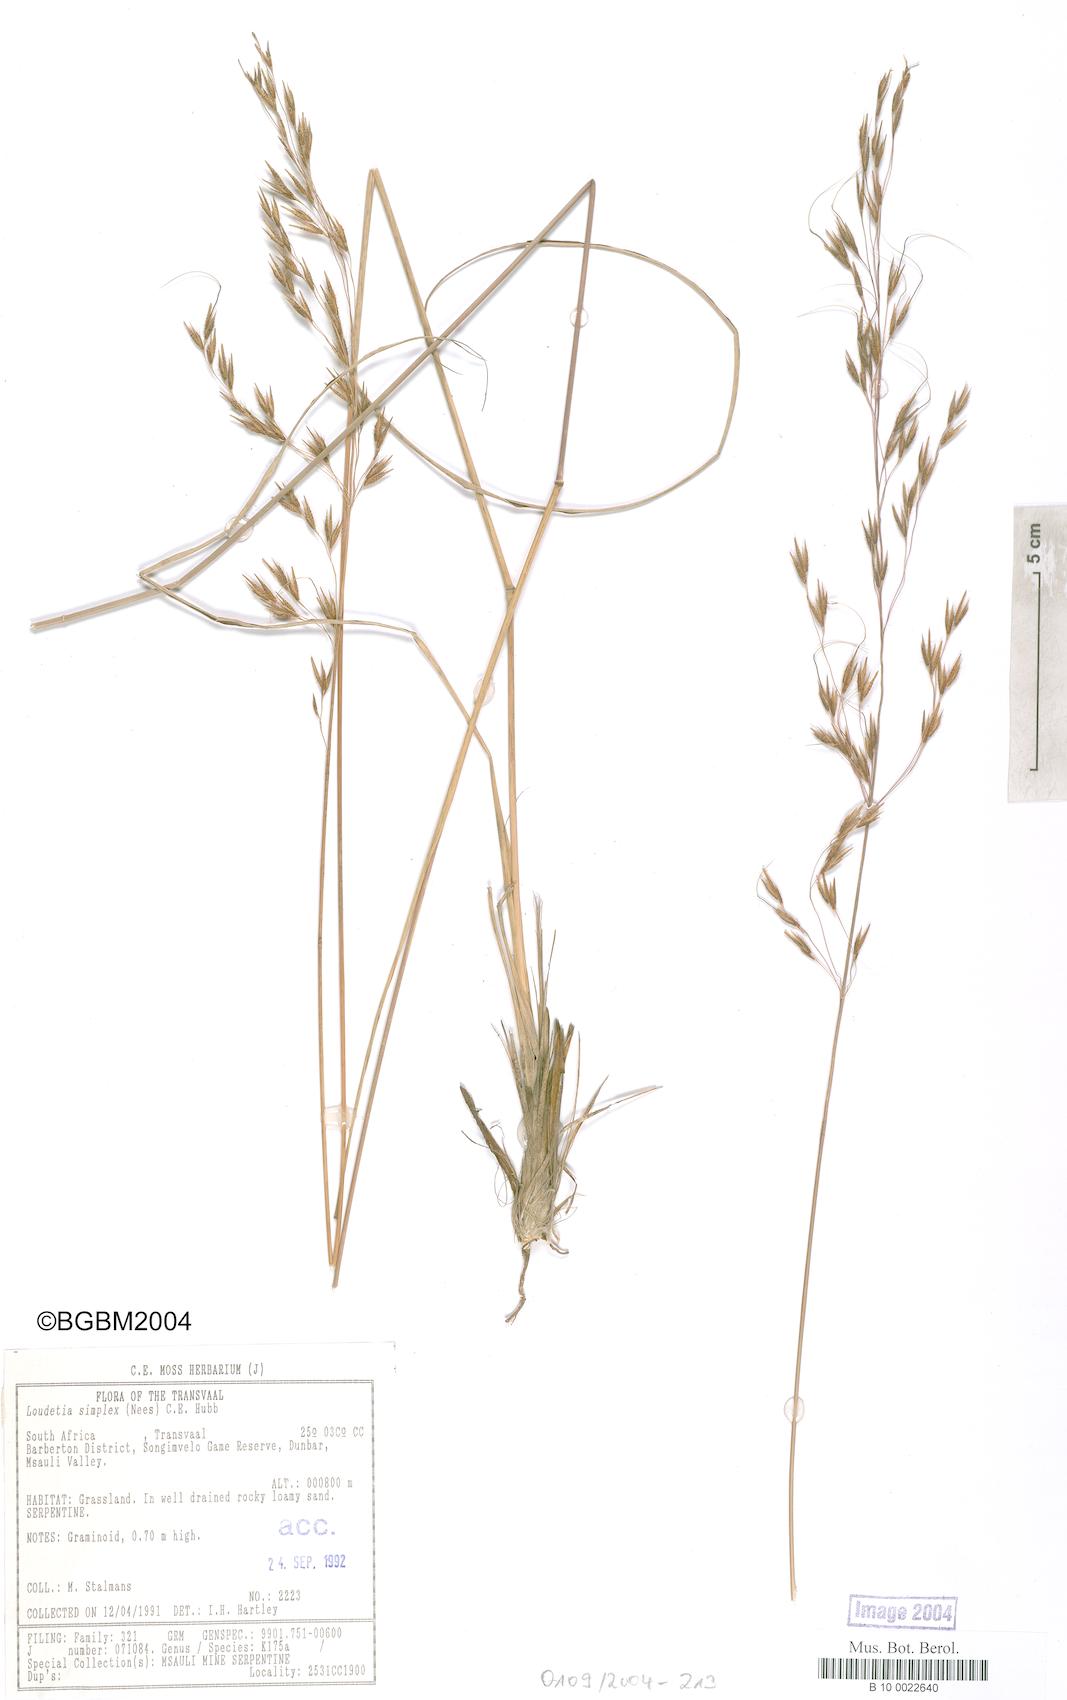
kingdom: Plantae
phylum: Tracheophyta
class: Liliopsida
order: Poales
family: Poaceae
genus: Loudetia
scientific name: Loudetia simplex
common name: Common russet grass
